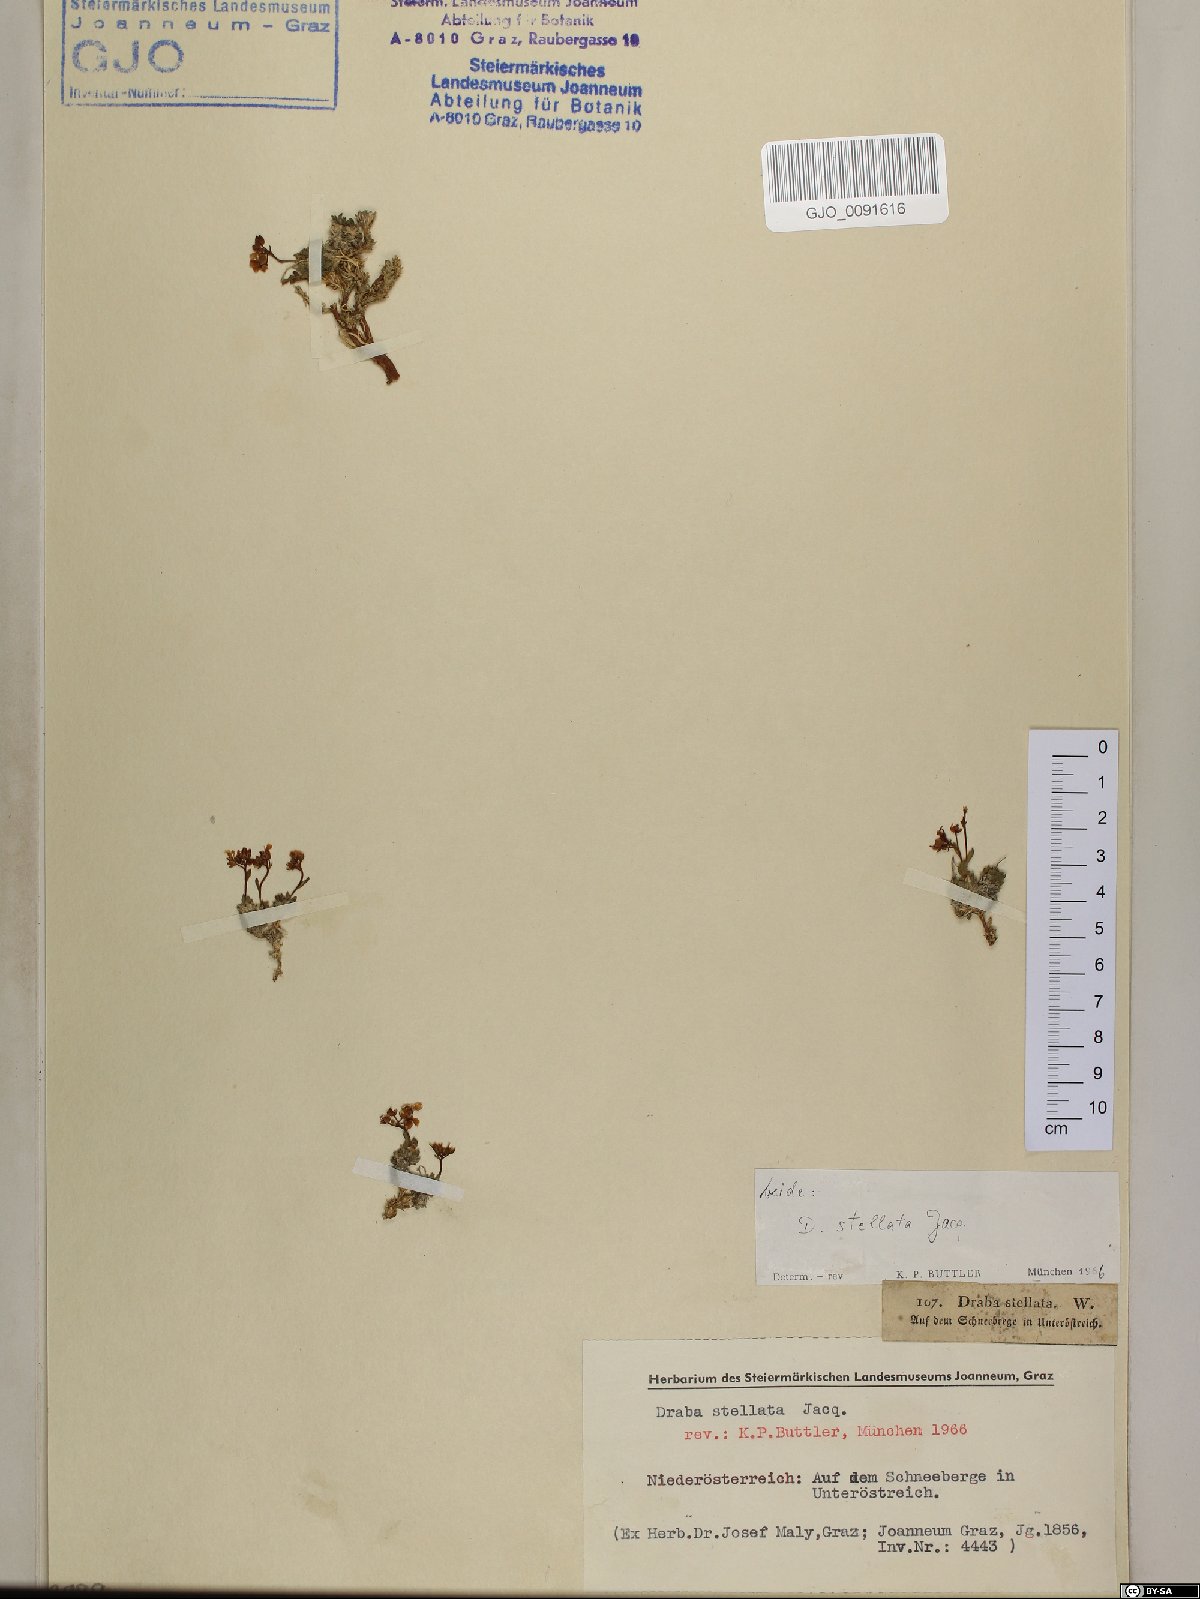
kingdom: Plantae
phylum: Tracheophyta
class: Magnoliopsida
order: Brassicales
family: Brassicaceae
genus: Draba
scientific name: Draba stellata
